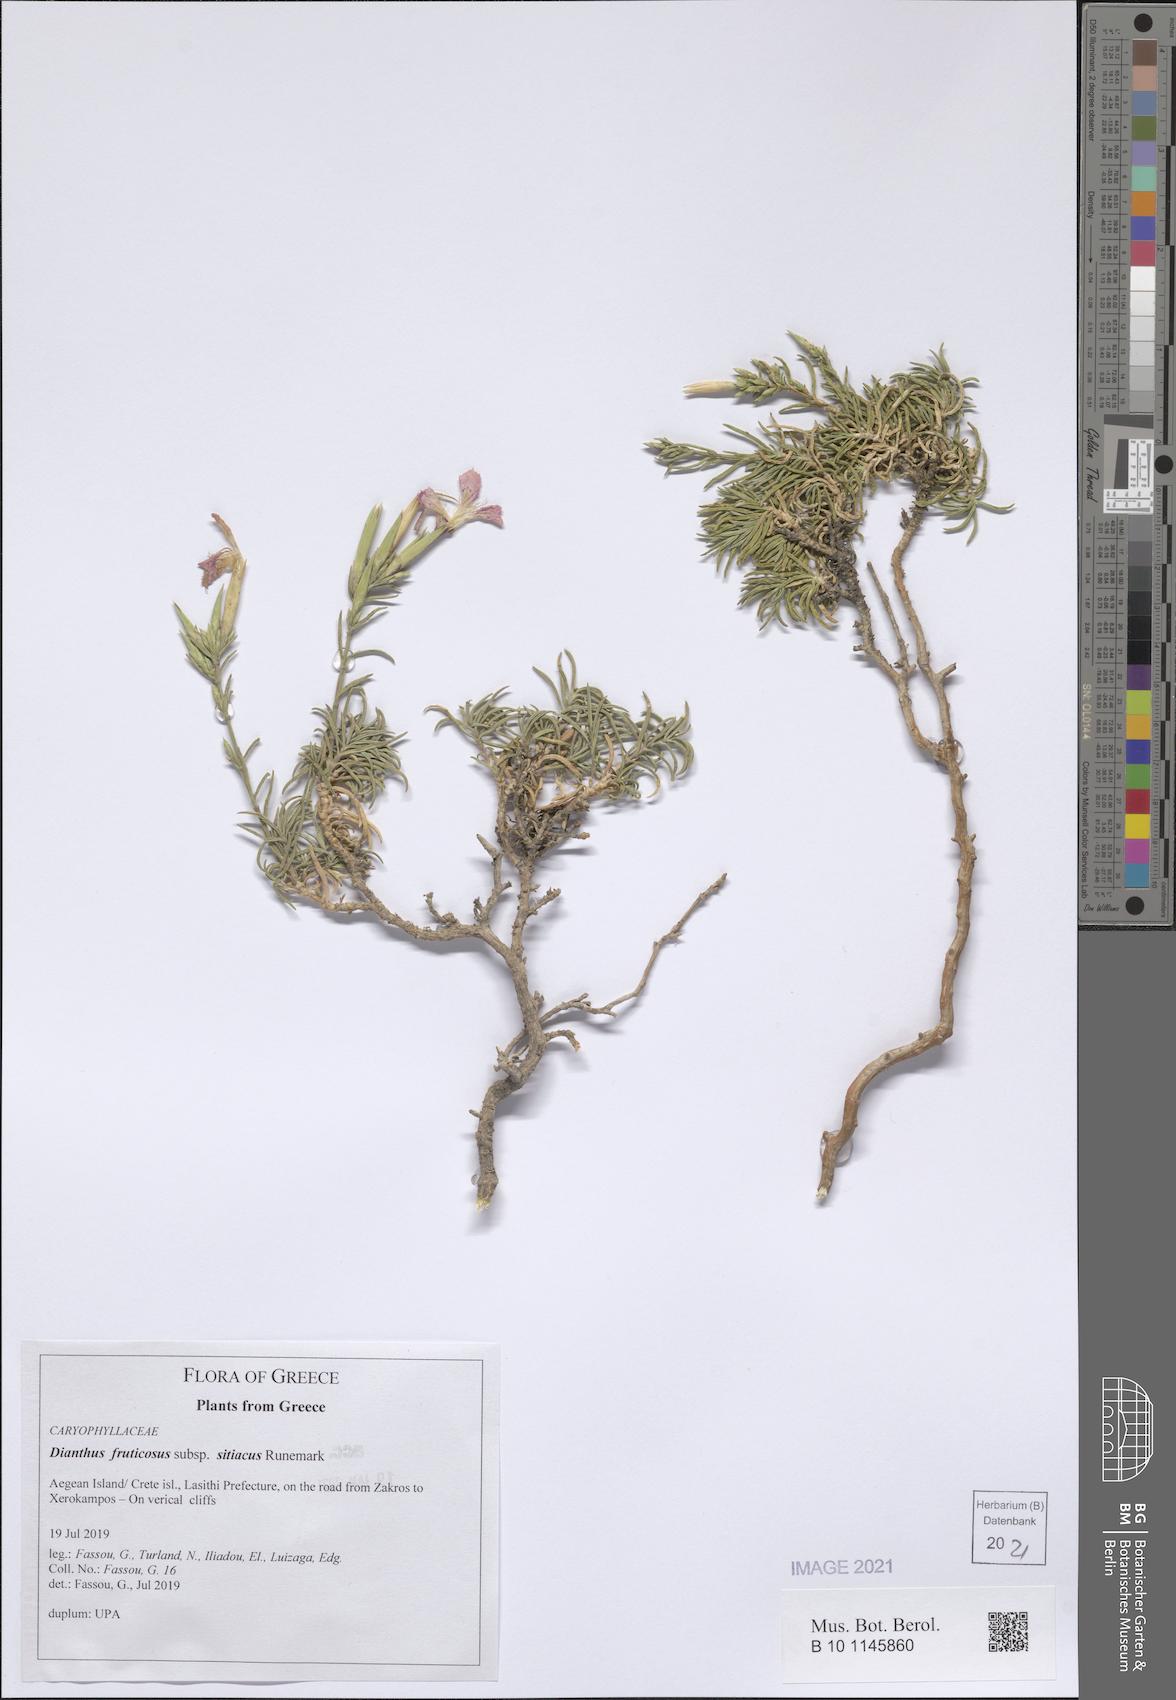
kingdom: Plantae
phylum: Tracheophyta
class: Magnoliopsida
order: Caryophyllales
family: Caryophyllaceae
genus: Dianthus
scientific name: Dianthus fruticosus
